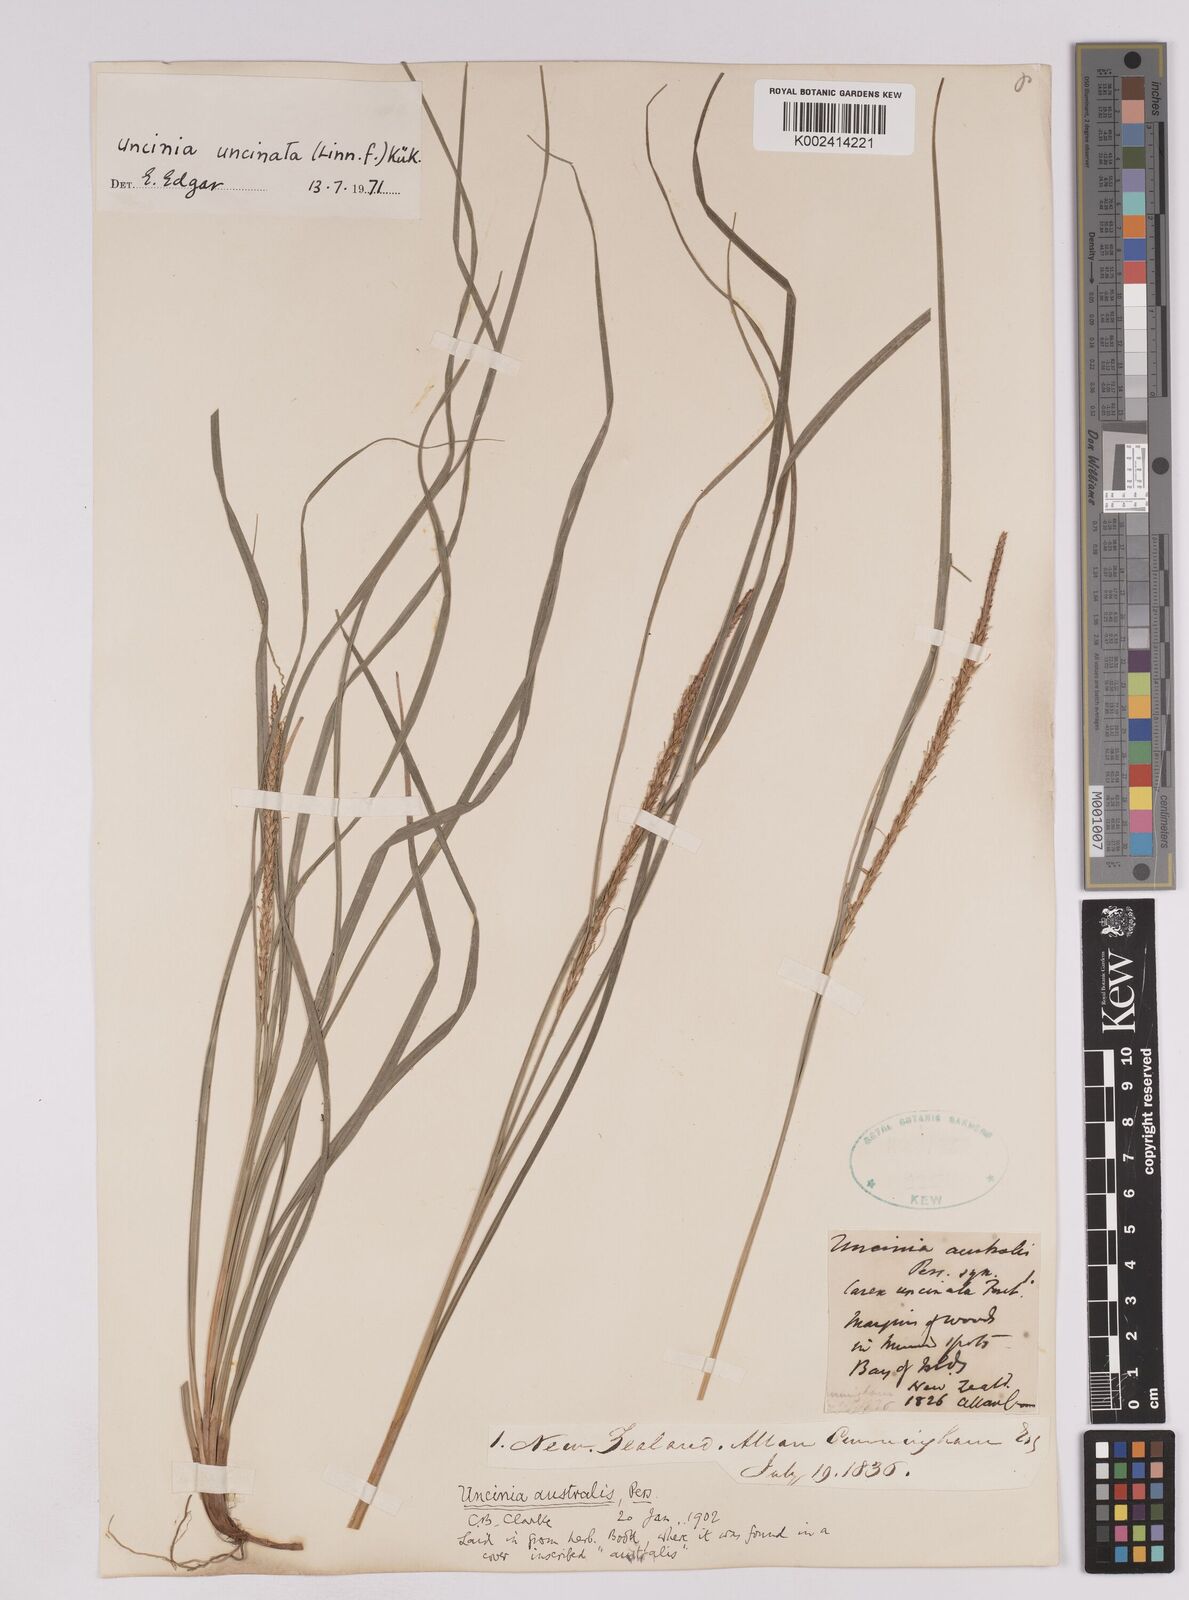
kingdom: Plantae
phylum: Tracheophyta
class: Liliopsida
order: Poales
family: Cyperaceae
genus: Carex
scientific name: Carex uncinata
